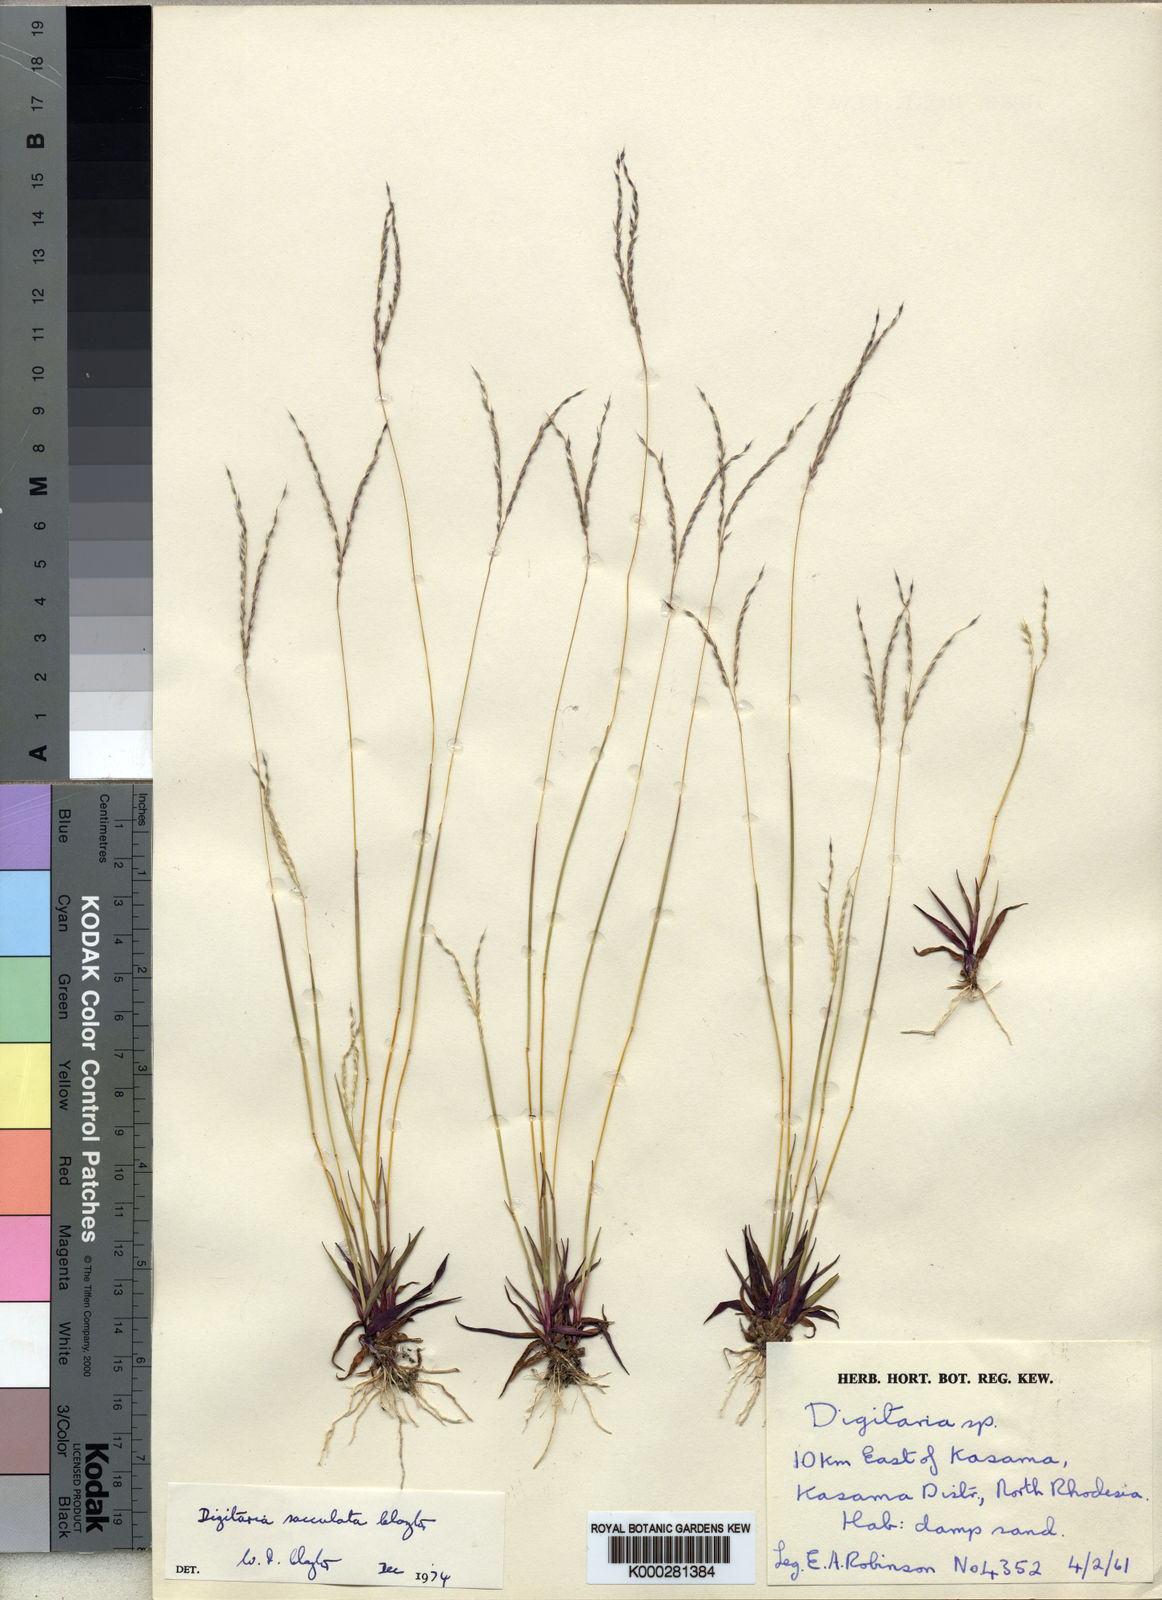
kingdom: Plantae
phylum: Tracheophyta
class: Liliopsida
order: Poales
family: Poaceae
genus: Digitaria
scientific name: Digitaria sacculata
